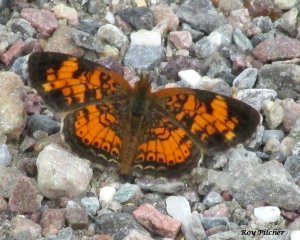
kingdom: Animalia
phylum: Arthropoda
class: Insecta
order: Lepidoptera
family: Nymphalidae
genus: Phyciodes
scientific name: Phyciodes tharos
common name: Pearl Crescent
